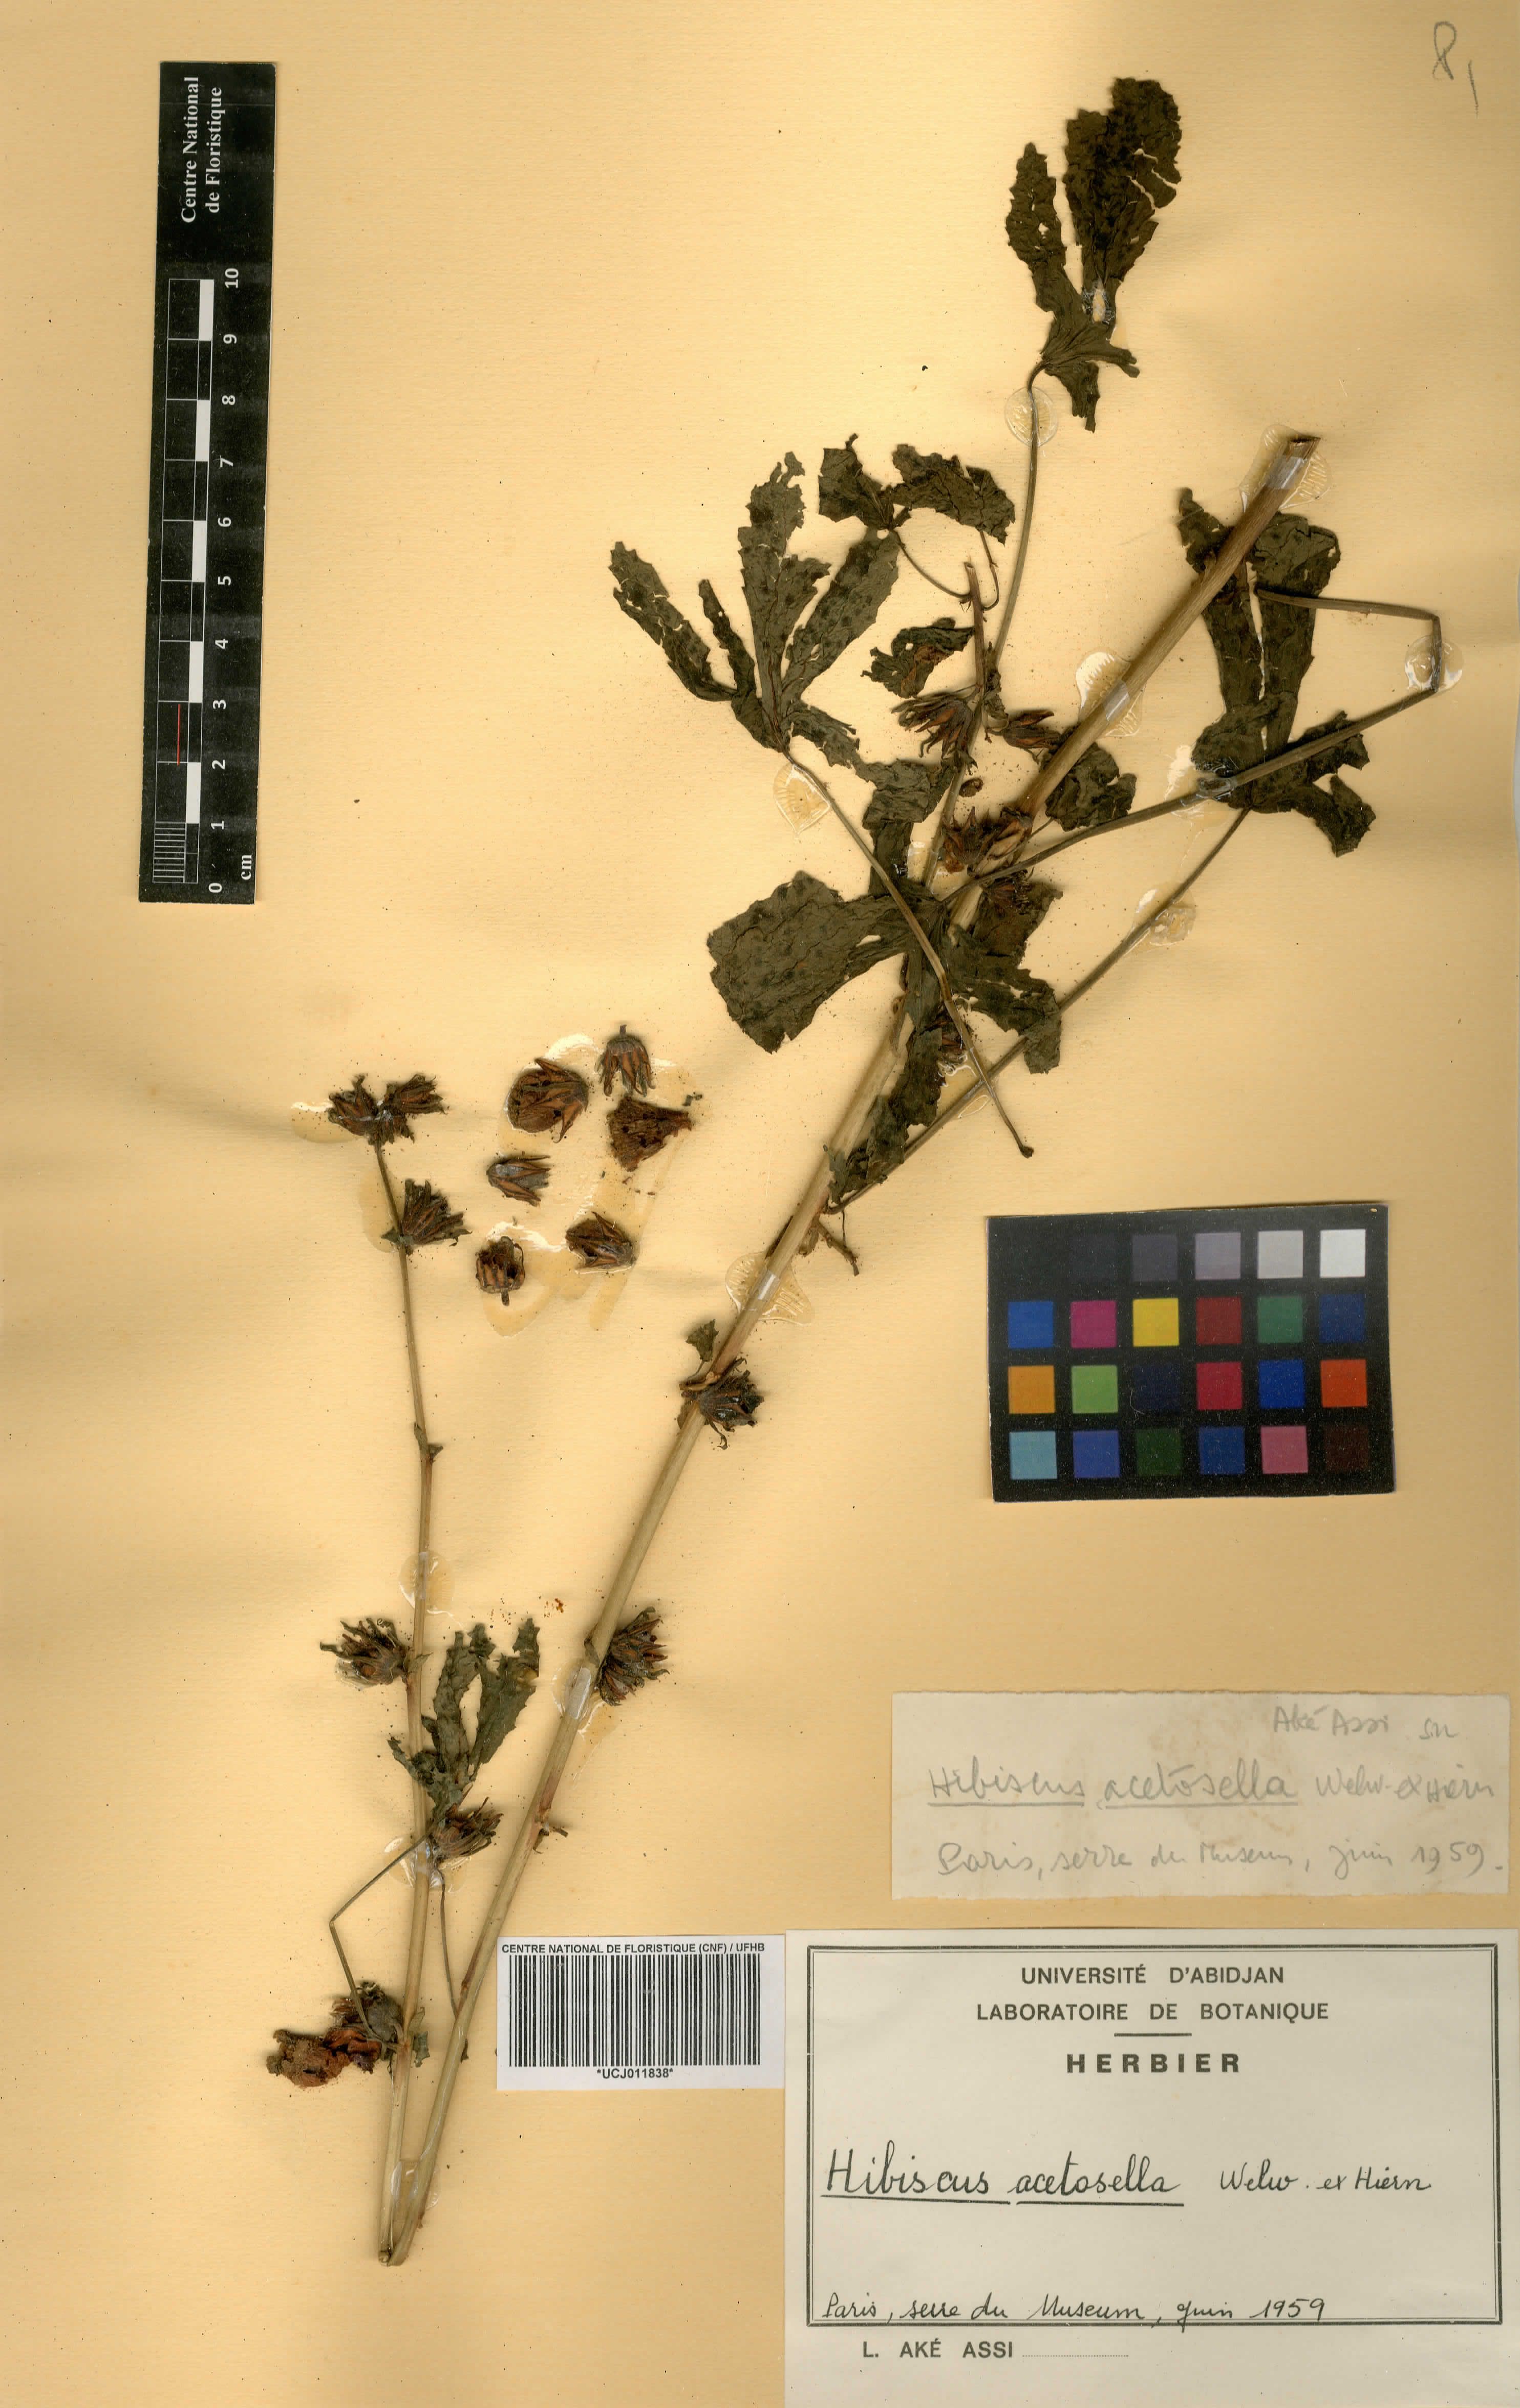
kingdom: Plantae
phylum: Tracheophyta
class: Magnoliopsida
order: Malvales
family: Malvaceae
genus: Hibiscus
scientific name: Hibiscus acetosella
